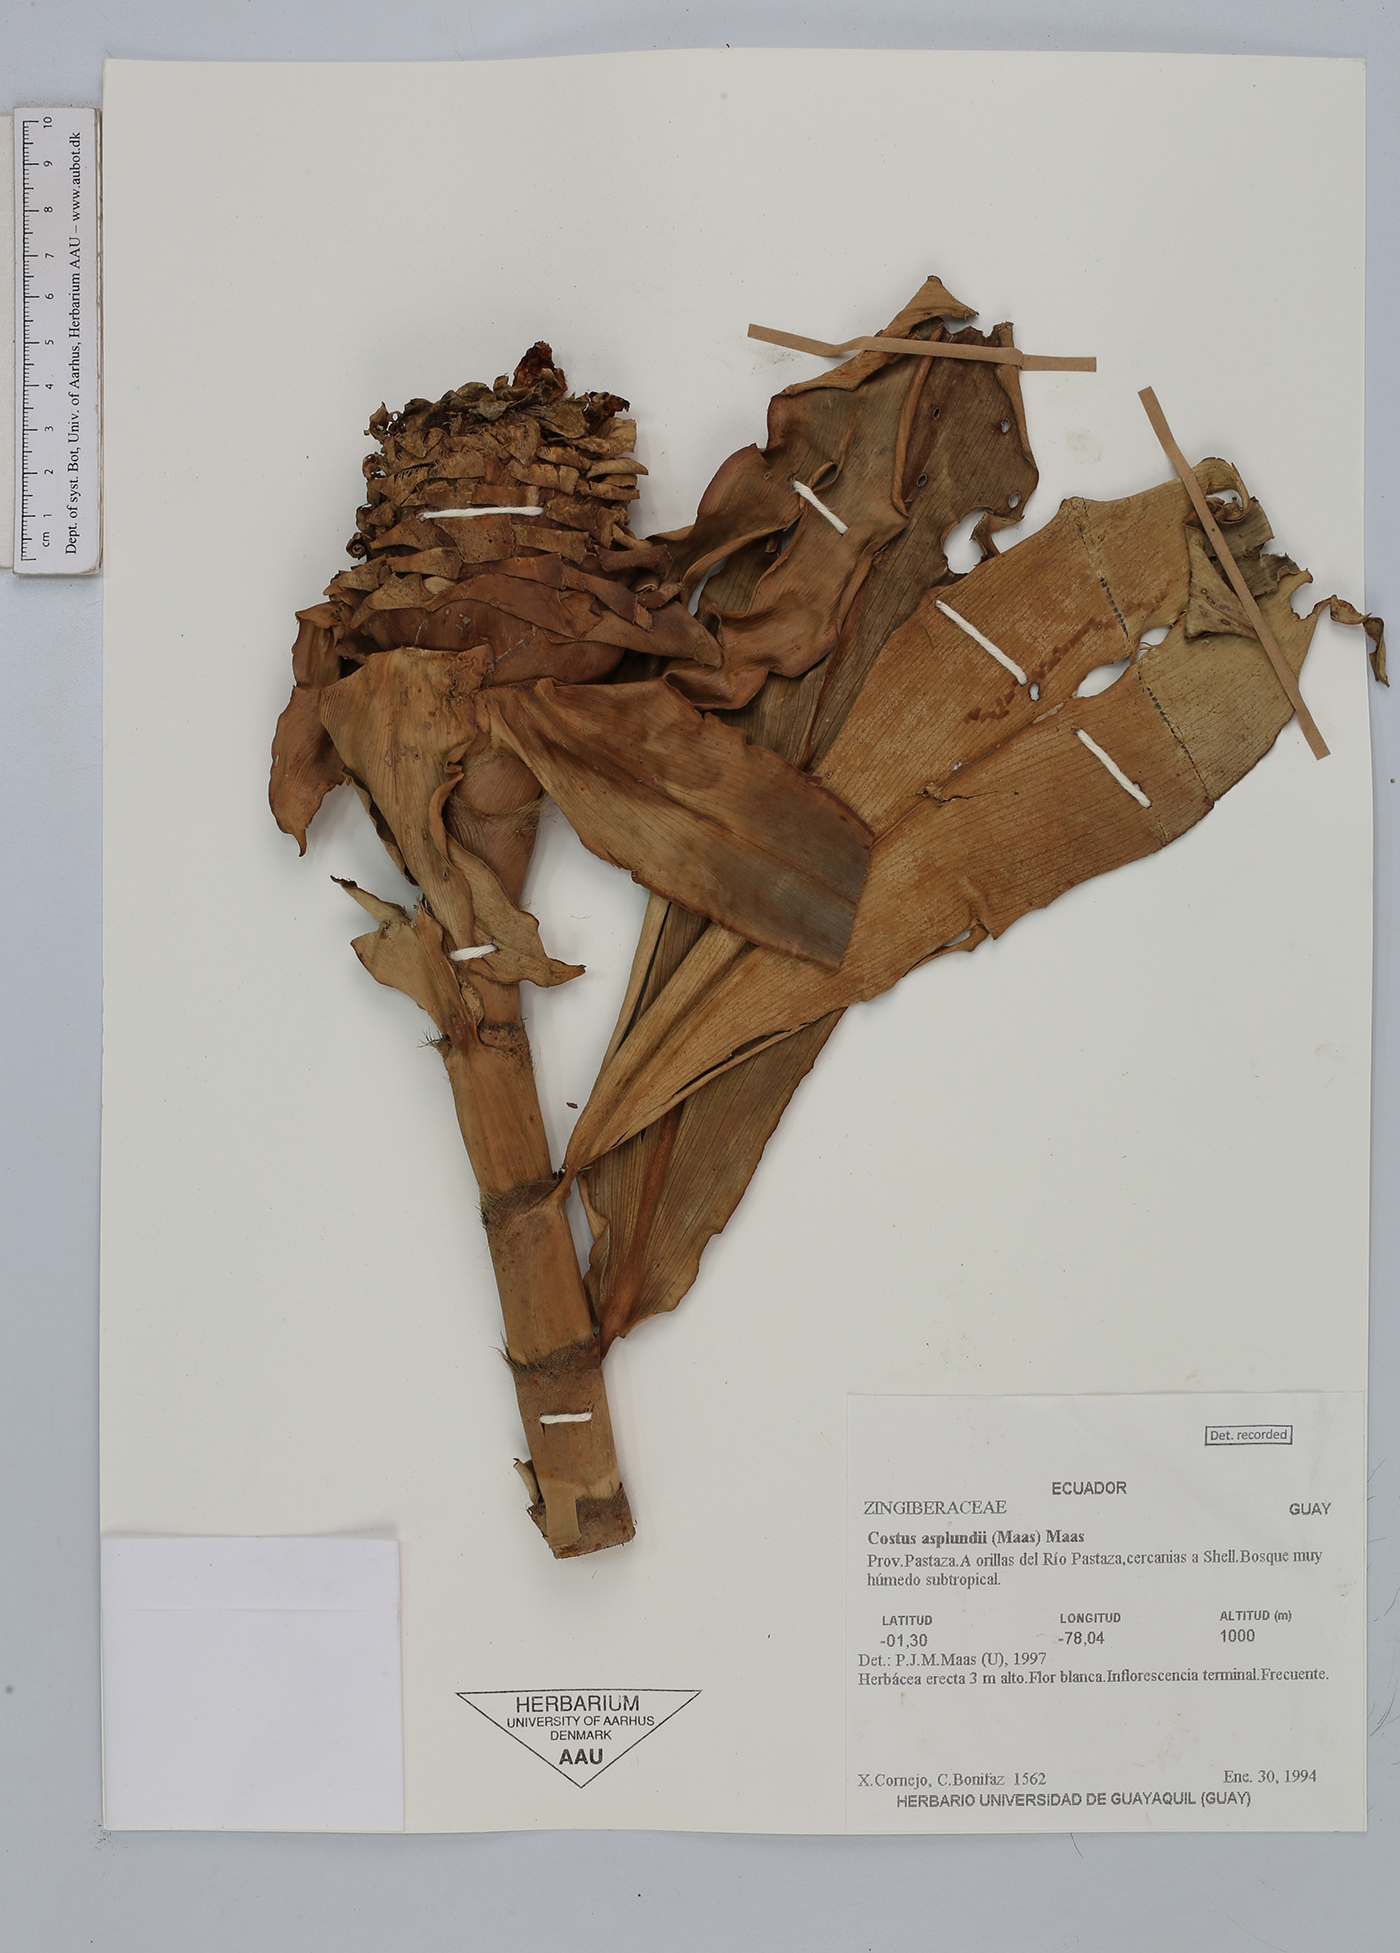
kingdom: Plantae
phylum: Tracheophyta
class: Liliopsida
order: Zingiberales
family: Costaceae
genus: Costus
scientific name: Costus asplundii
